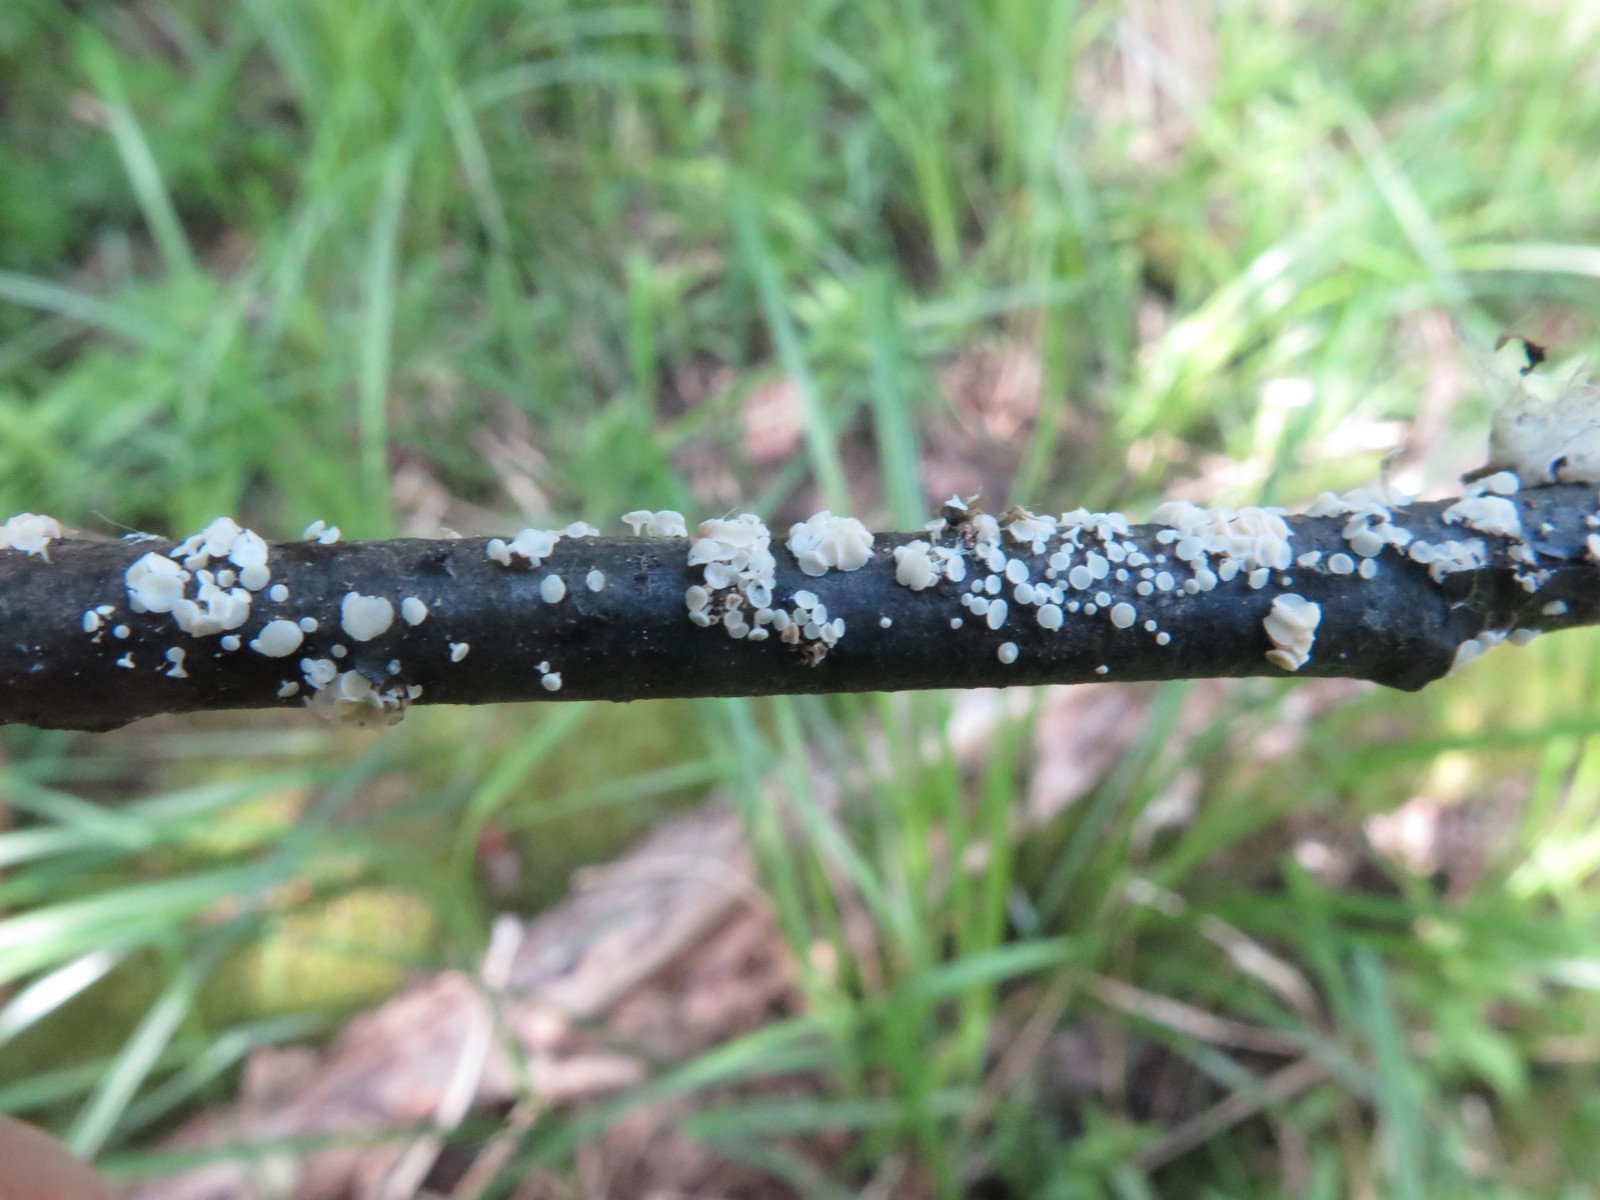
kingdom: Fungi
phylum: Ascomycota
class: Leotiomycetes
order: Helotiales
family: Lachnaceae
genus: Lachnum
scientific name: Lachnum controversum
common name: tagrør-frynseskive
